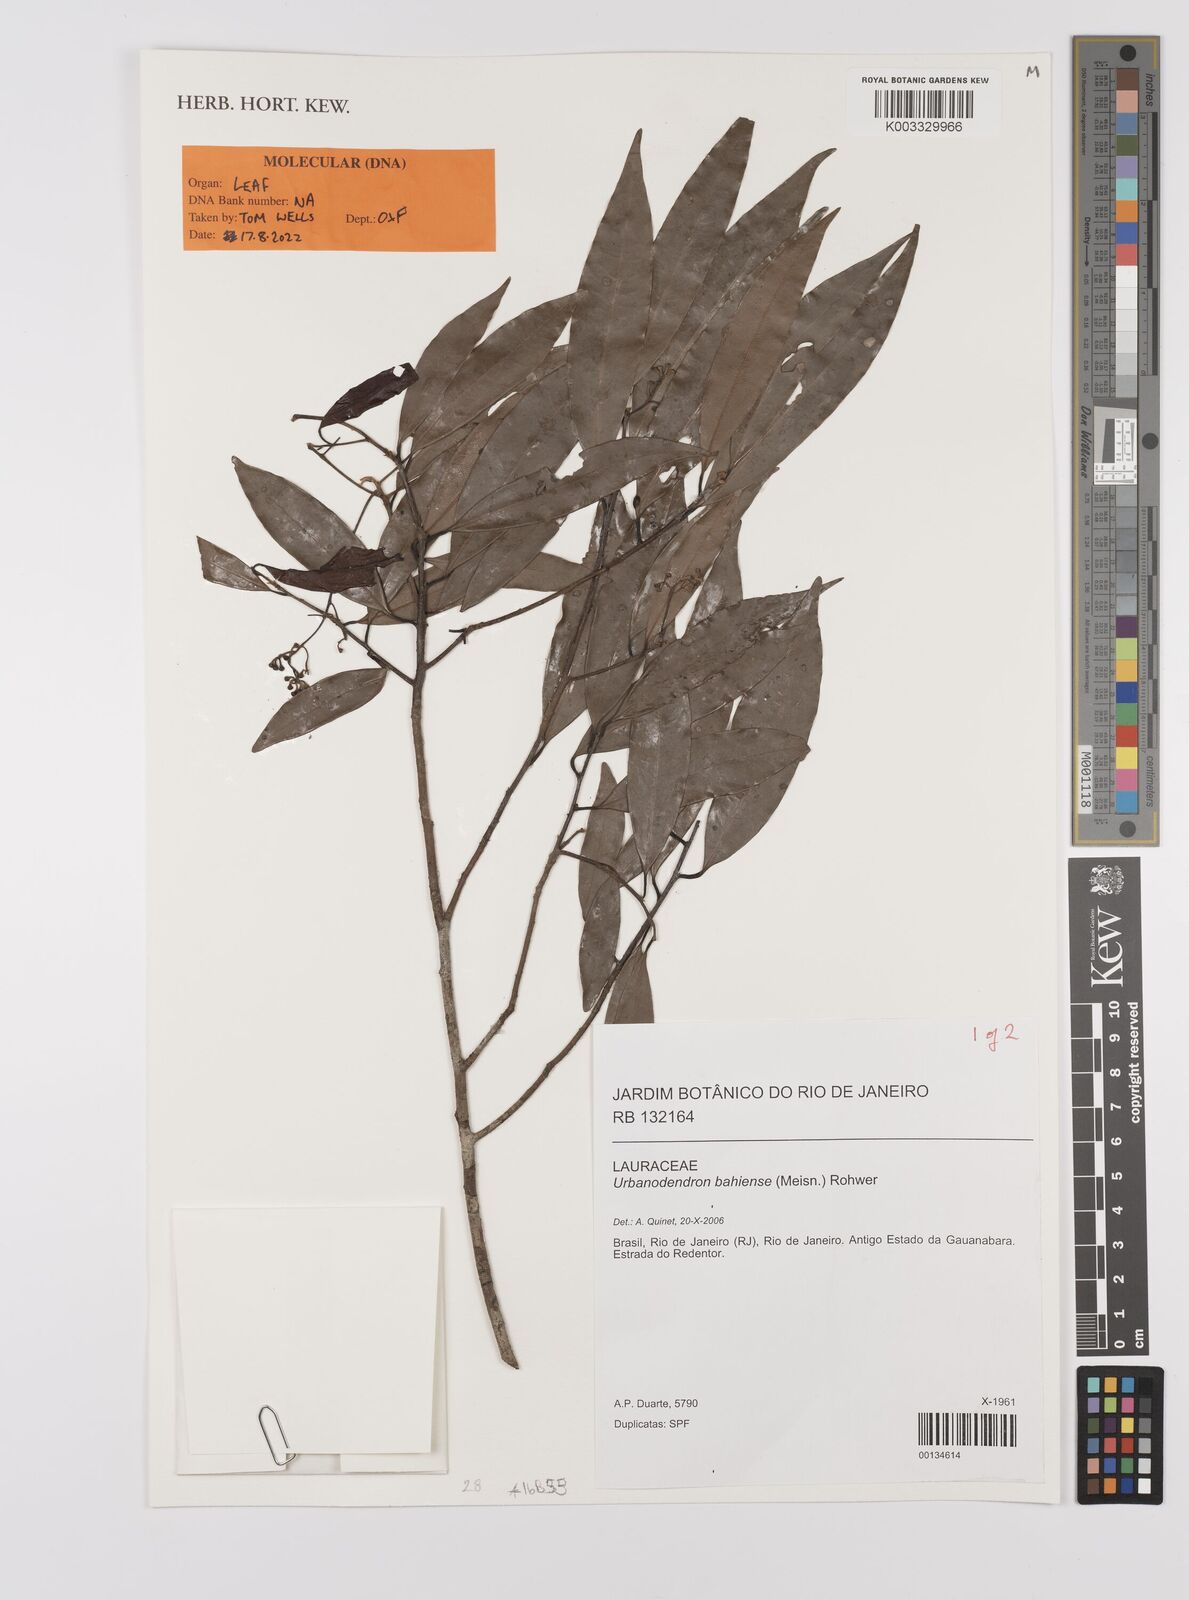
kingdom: Plantae
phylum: Tracheophyta
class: Magnoliopsida
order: Laurales
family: Lauraceae
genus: Urbanodendron
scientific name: Urbanodendron bahiense
